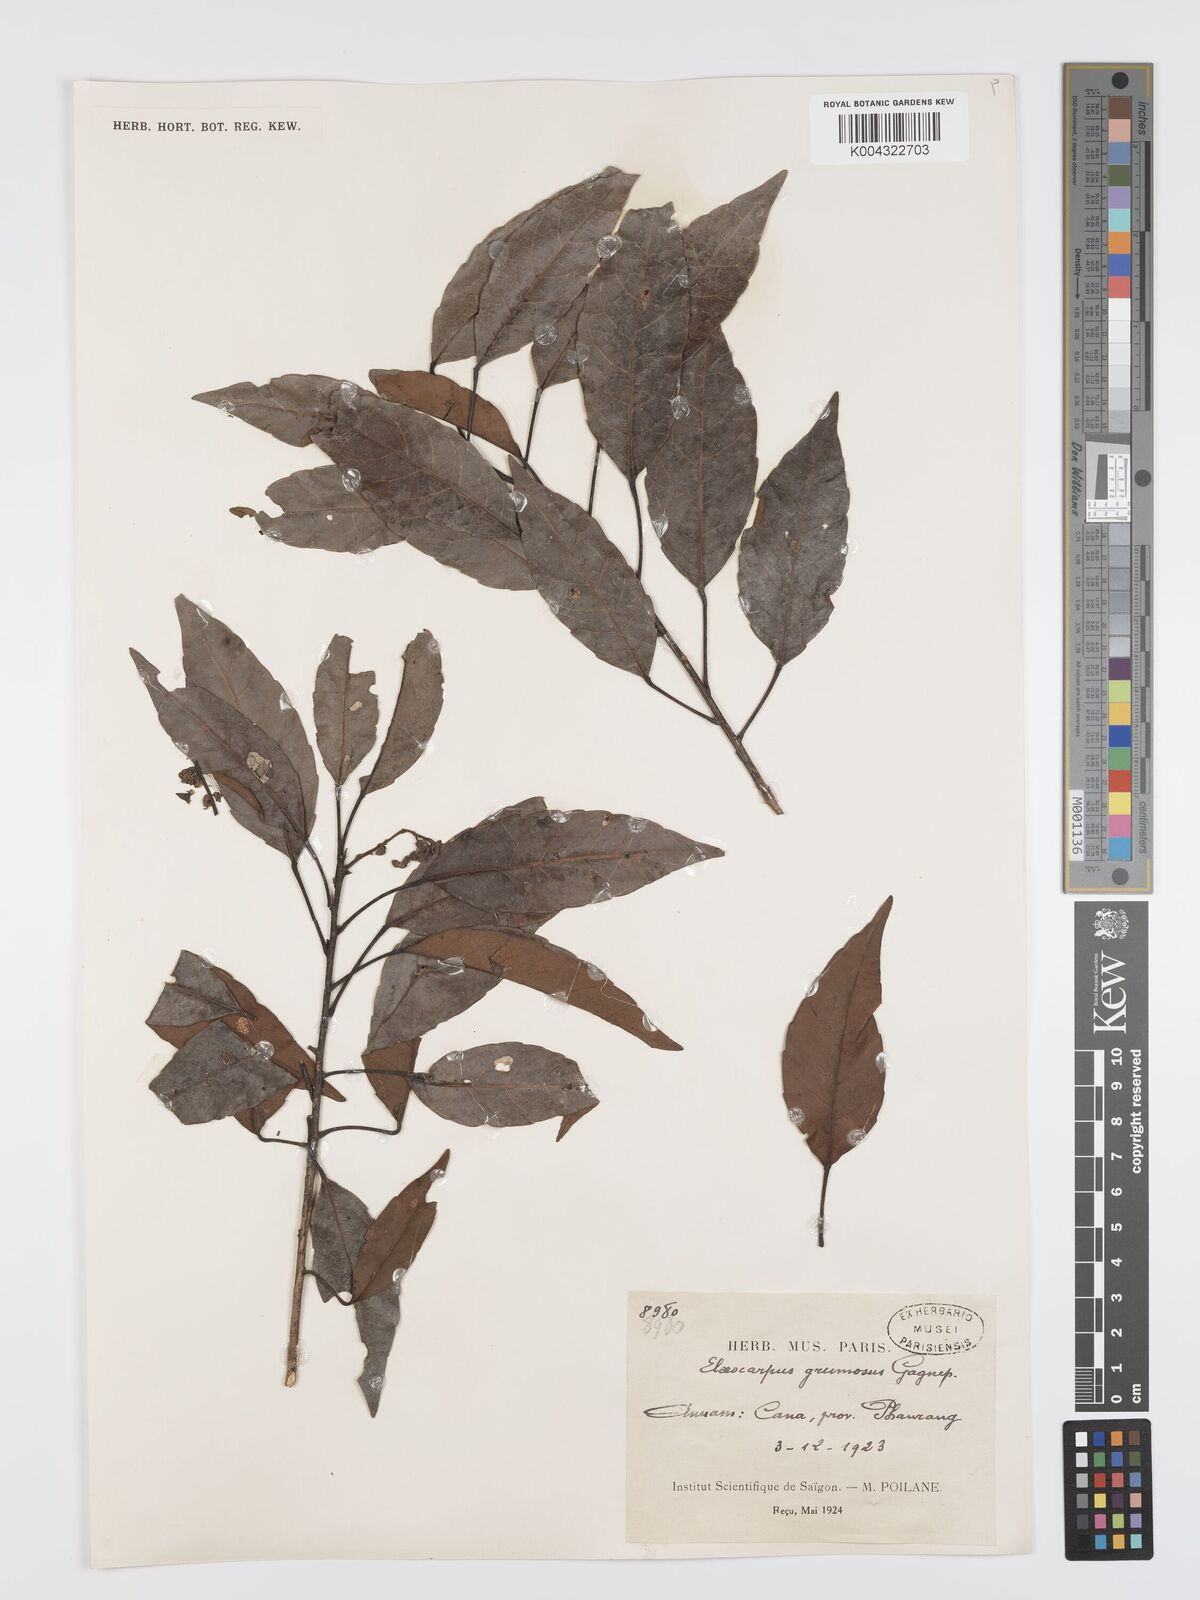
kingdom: Plantae
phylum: Tracheophyta
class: Magnoliopsida
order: Oxalidales
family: Elaeocarpaceae
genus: Elaeocarpus
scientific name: Elaeocarpus grumosus
